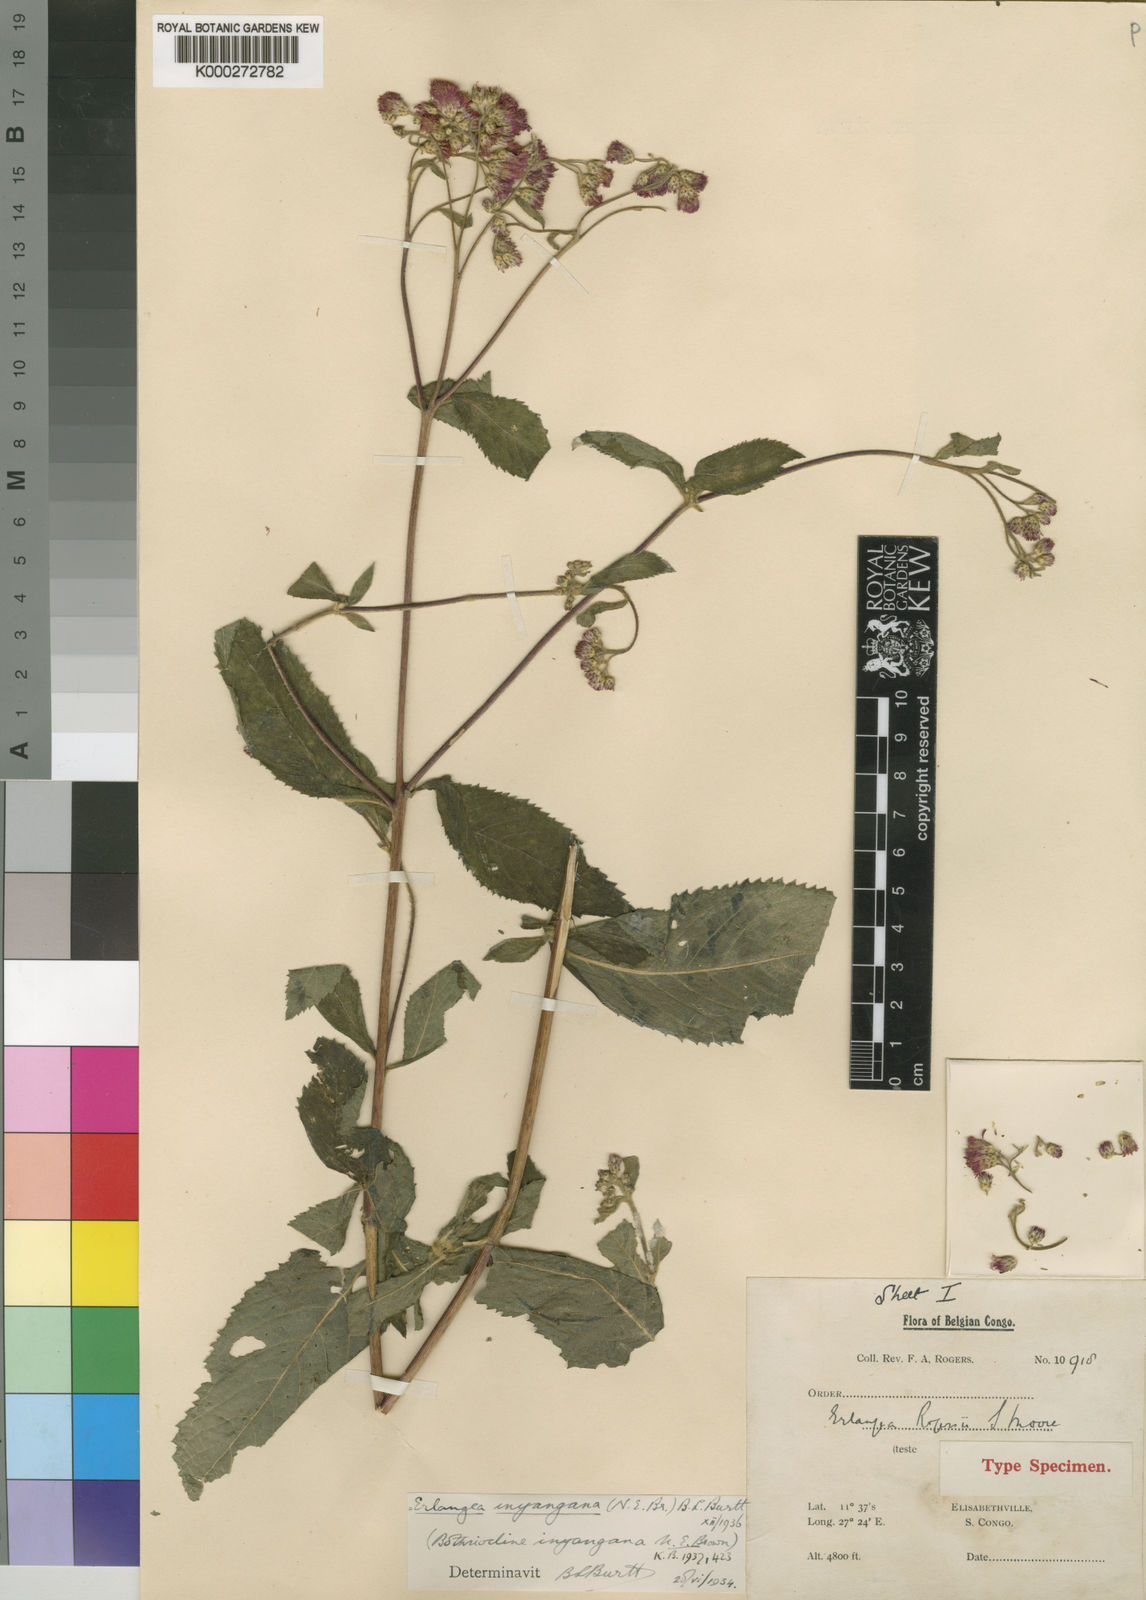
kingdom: Plantae
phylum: Tracheophyta
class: Magnoliopsida
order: Asterales
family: Asteraceae
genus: Bothriocline
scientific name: Bothriocline inyangana
